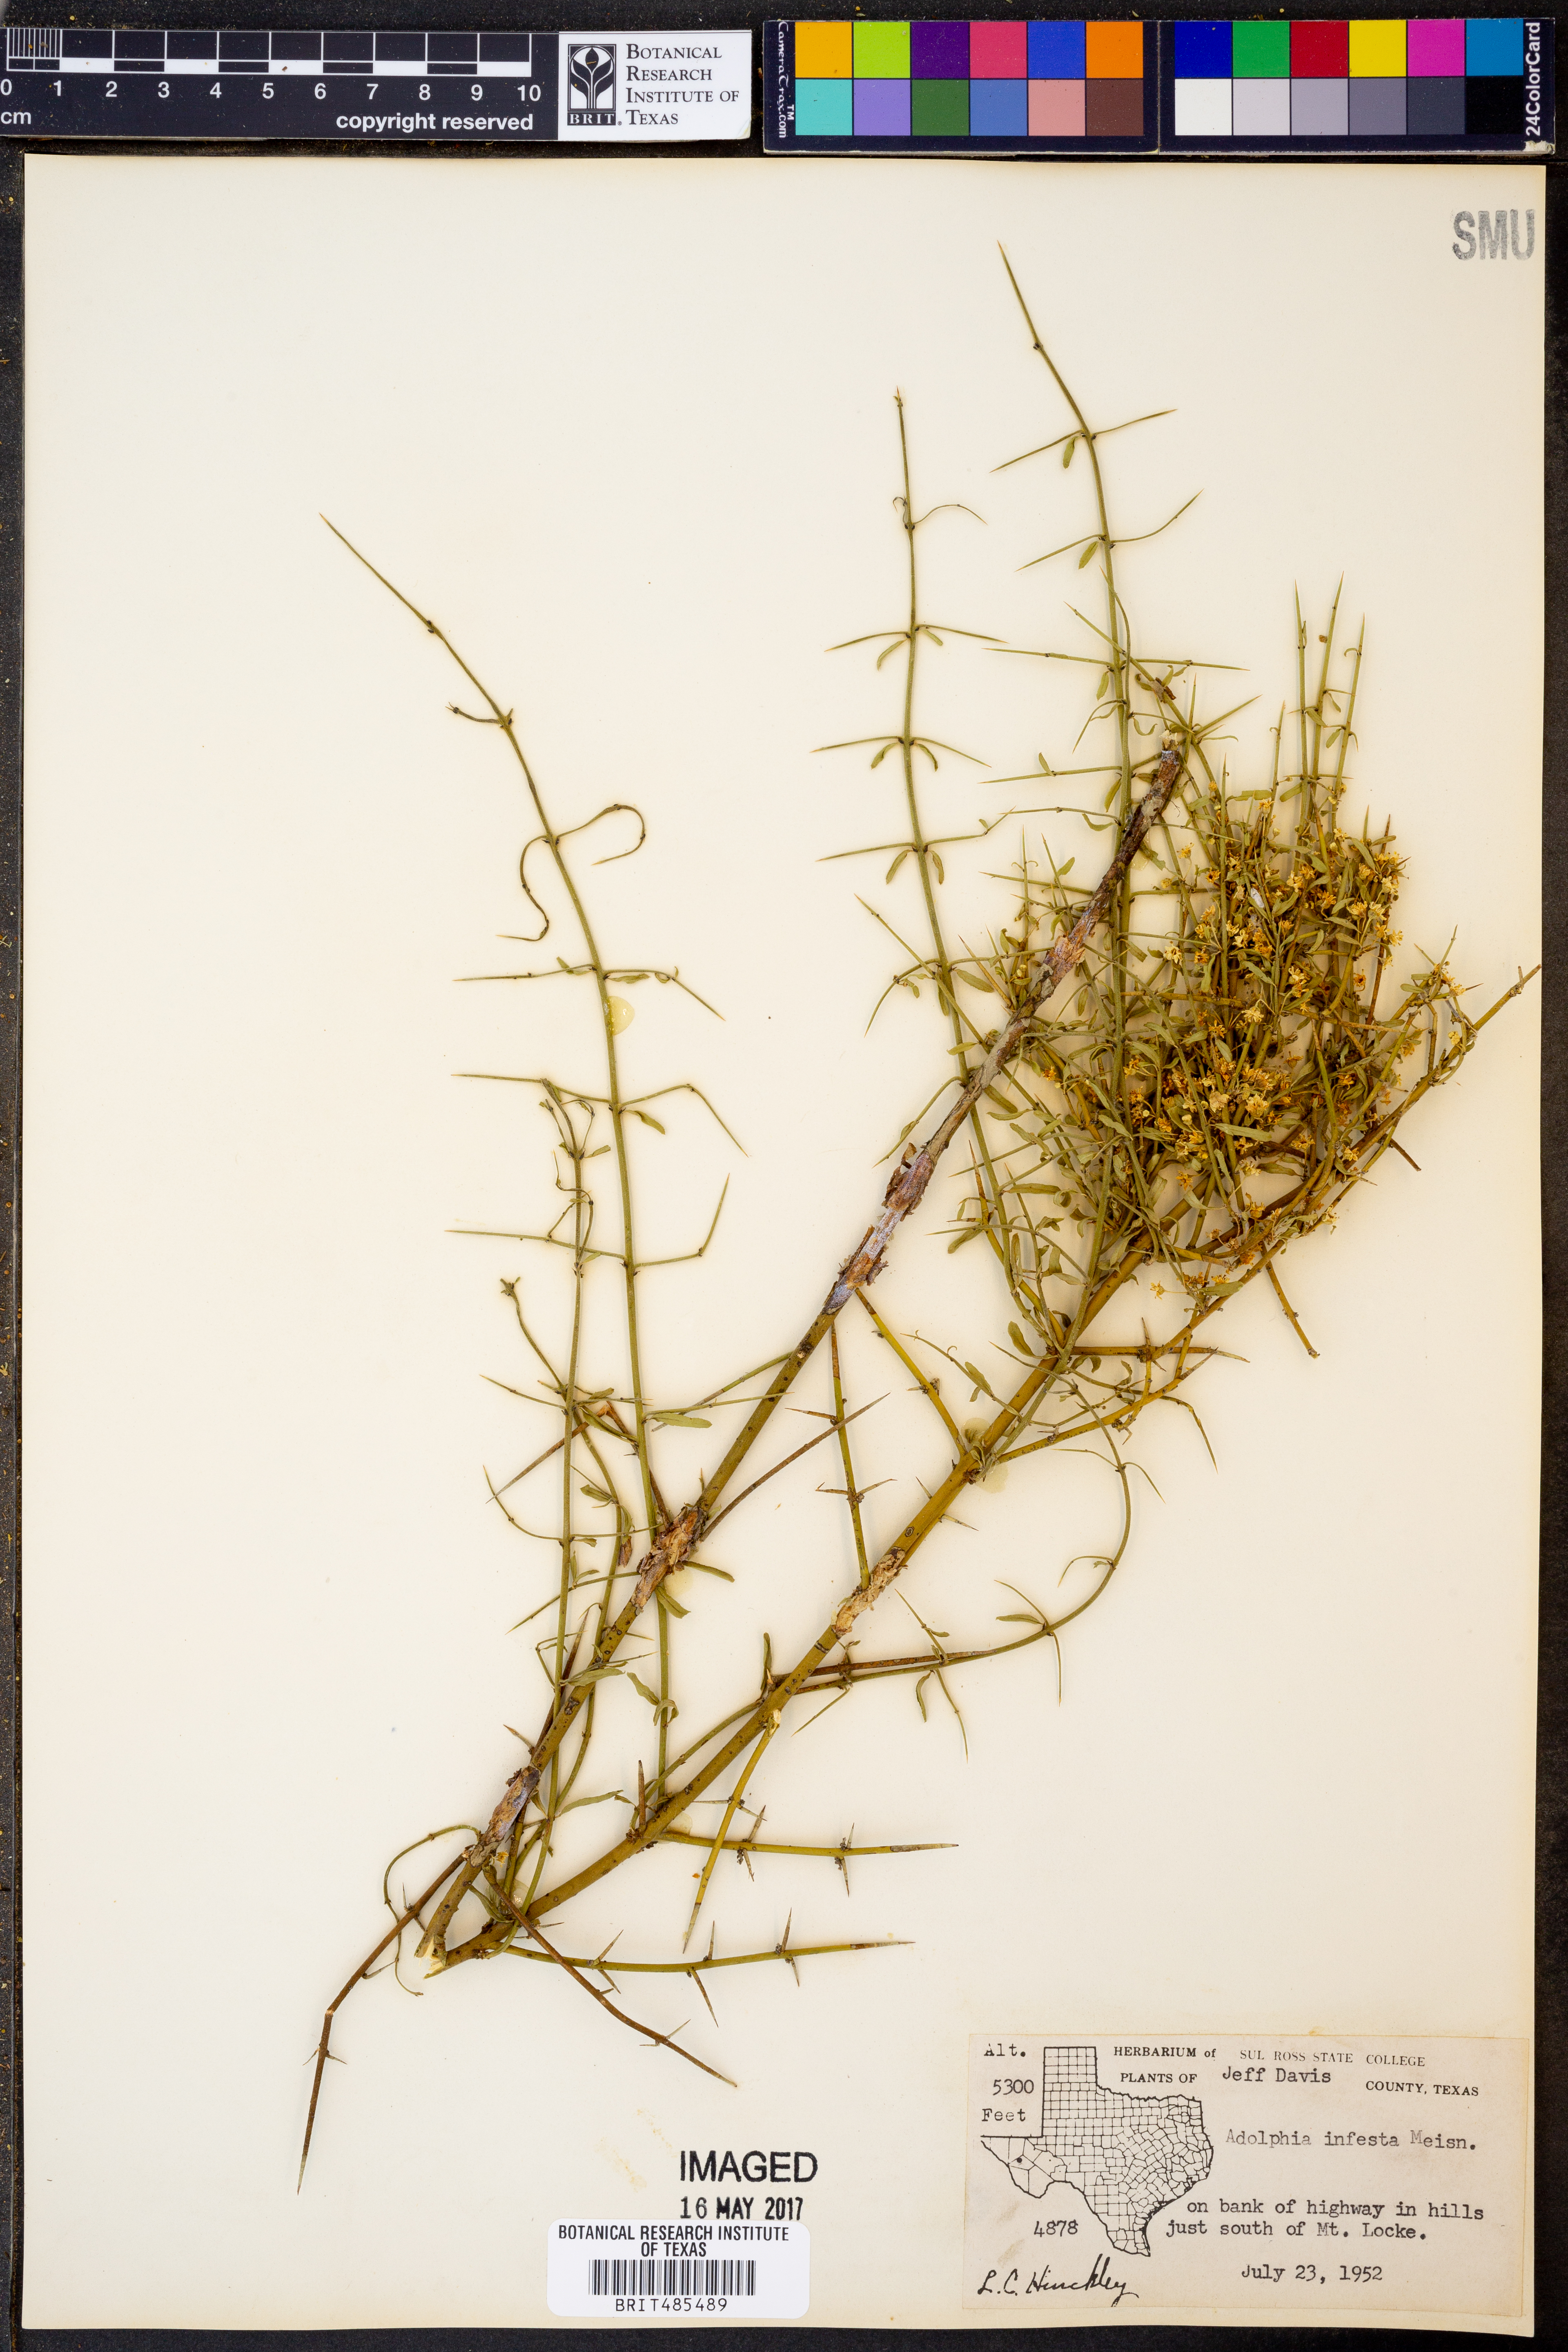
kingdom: Plantae
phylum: Tracheophyta
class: Magnoliopsida
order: Rosales
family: Rhamnaceae
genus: Adolphia
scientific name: Adolphia infesta
